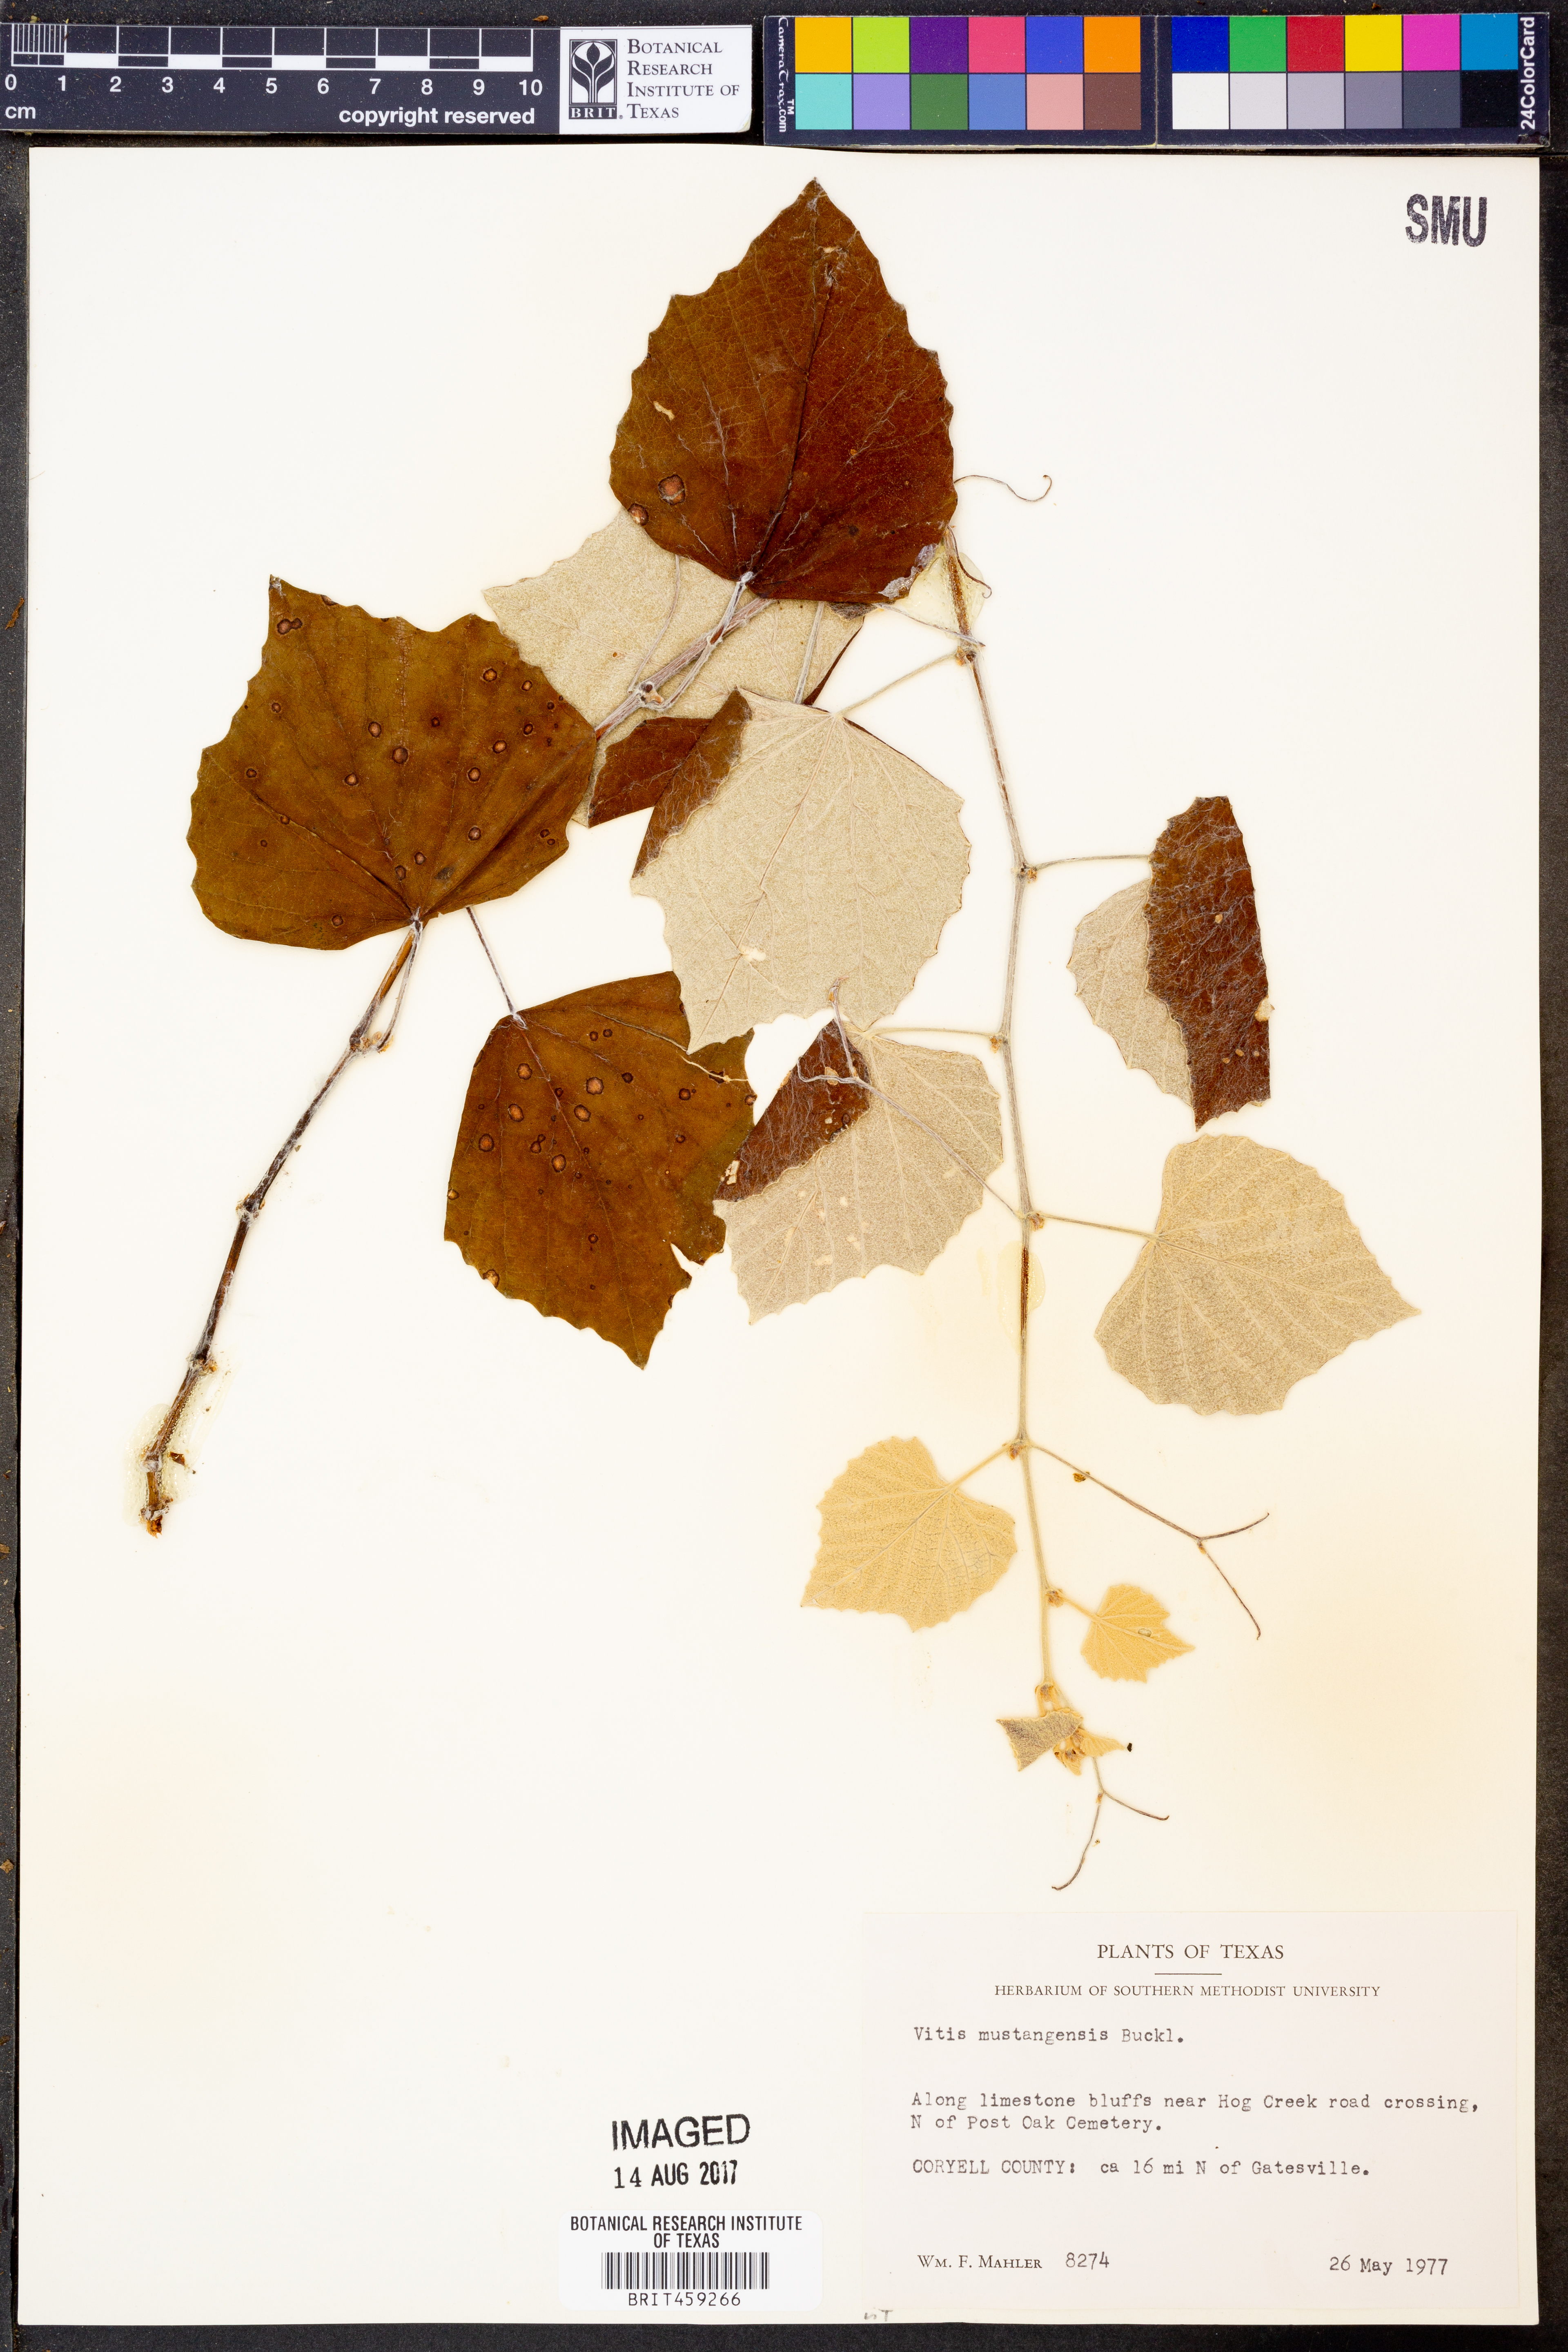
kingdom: Plantae
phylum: Tracheophyta
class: Magnoliopsida
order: Vitales
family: Vitaceae
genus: Vitis
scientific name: Vitis mustangensis
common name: Mustang grape
